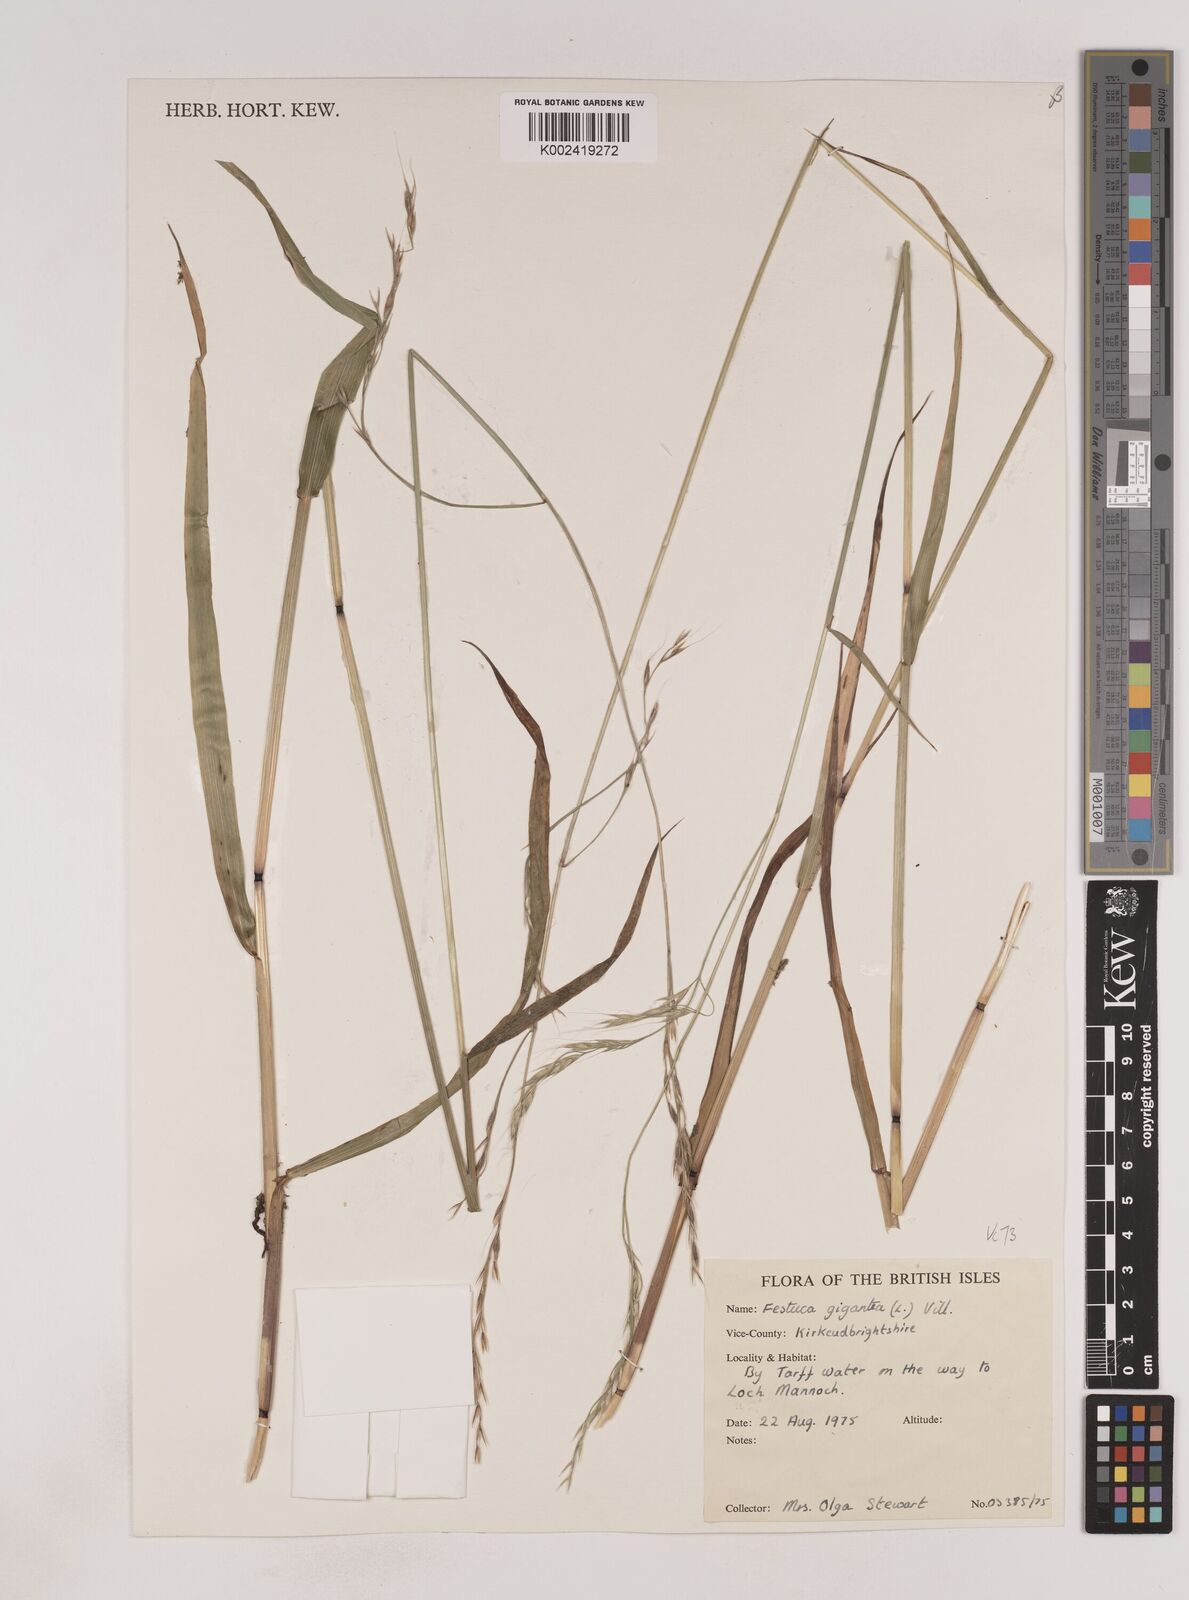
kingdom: Plantae
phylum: Tracheophyta
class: Liliopsida
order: Poales
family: Poaceae
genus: Lolium
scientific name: Lolium giganteum
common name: Giant fescue
